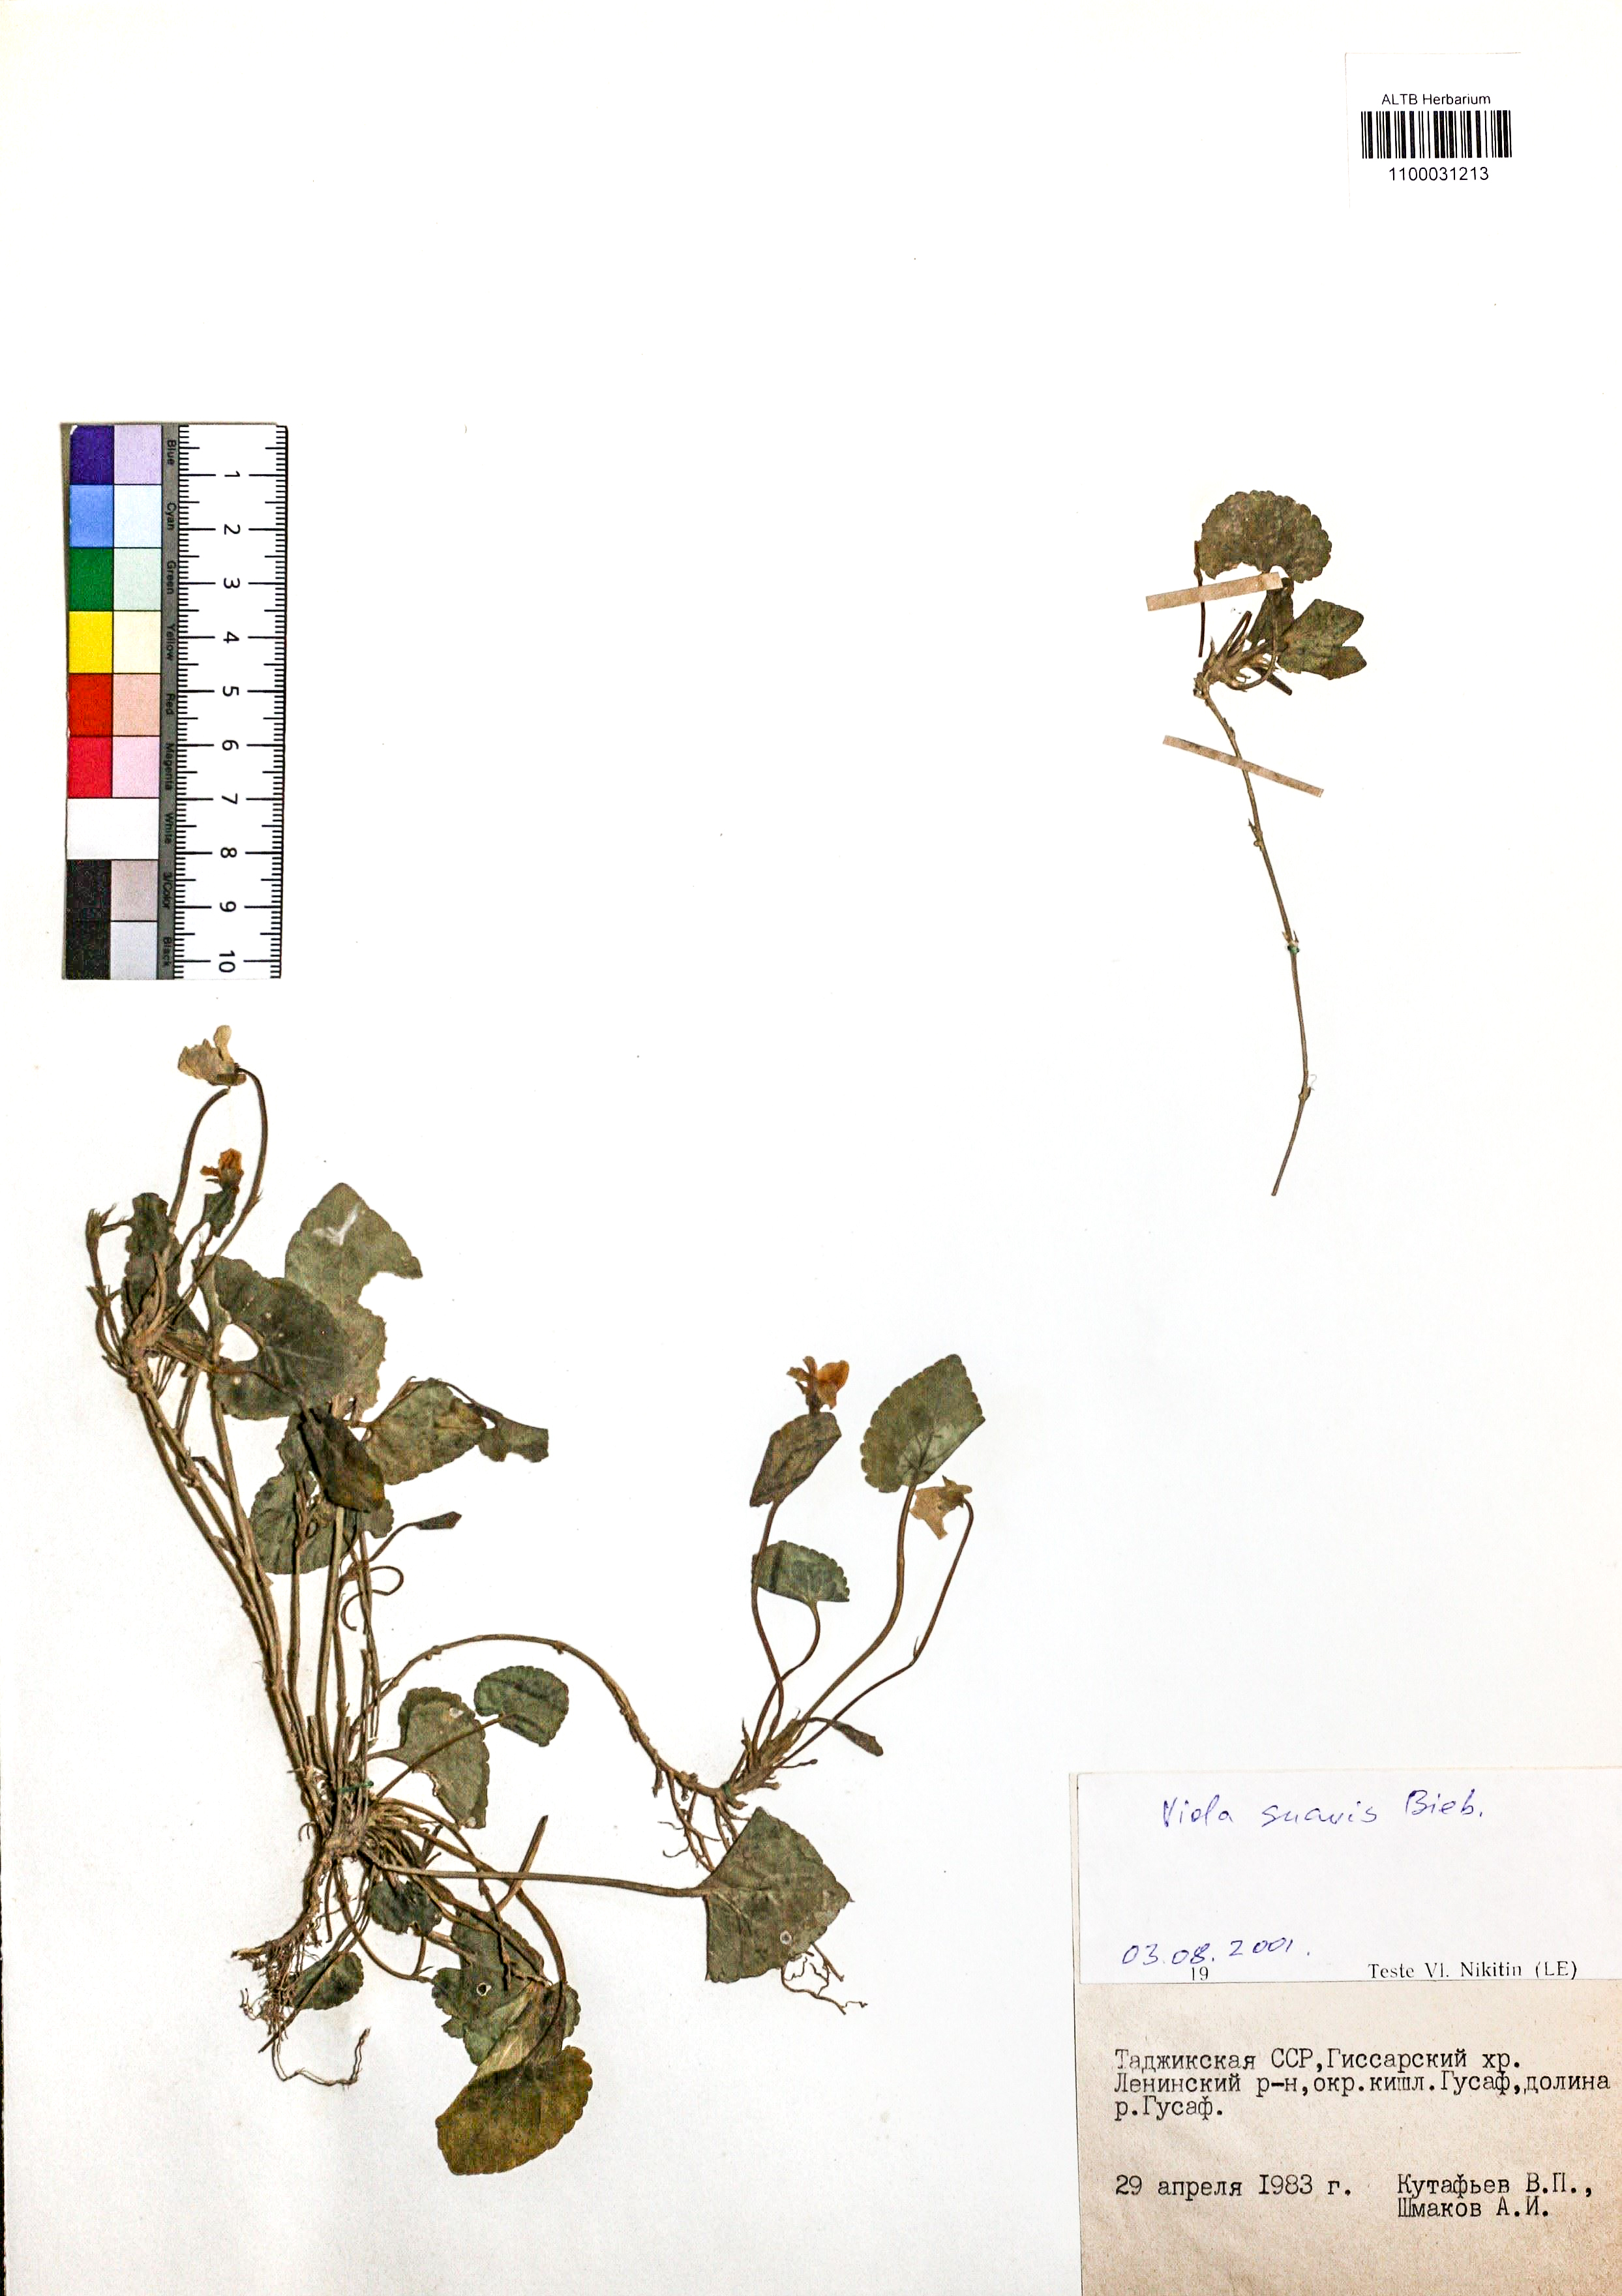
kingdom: Plantae
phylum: Tracheophyta
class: Magnoliopsida
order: Malpighiales
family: Violaceae
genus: Viola
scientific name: Viola suavis
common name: Russian violet
